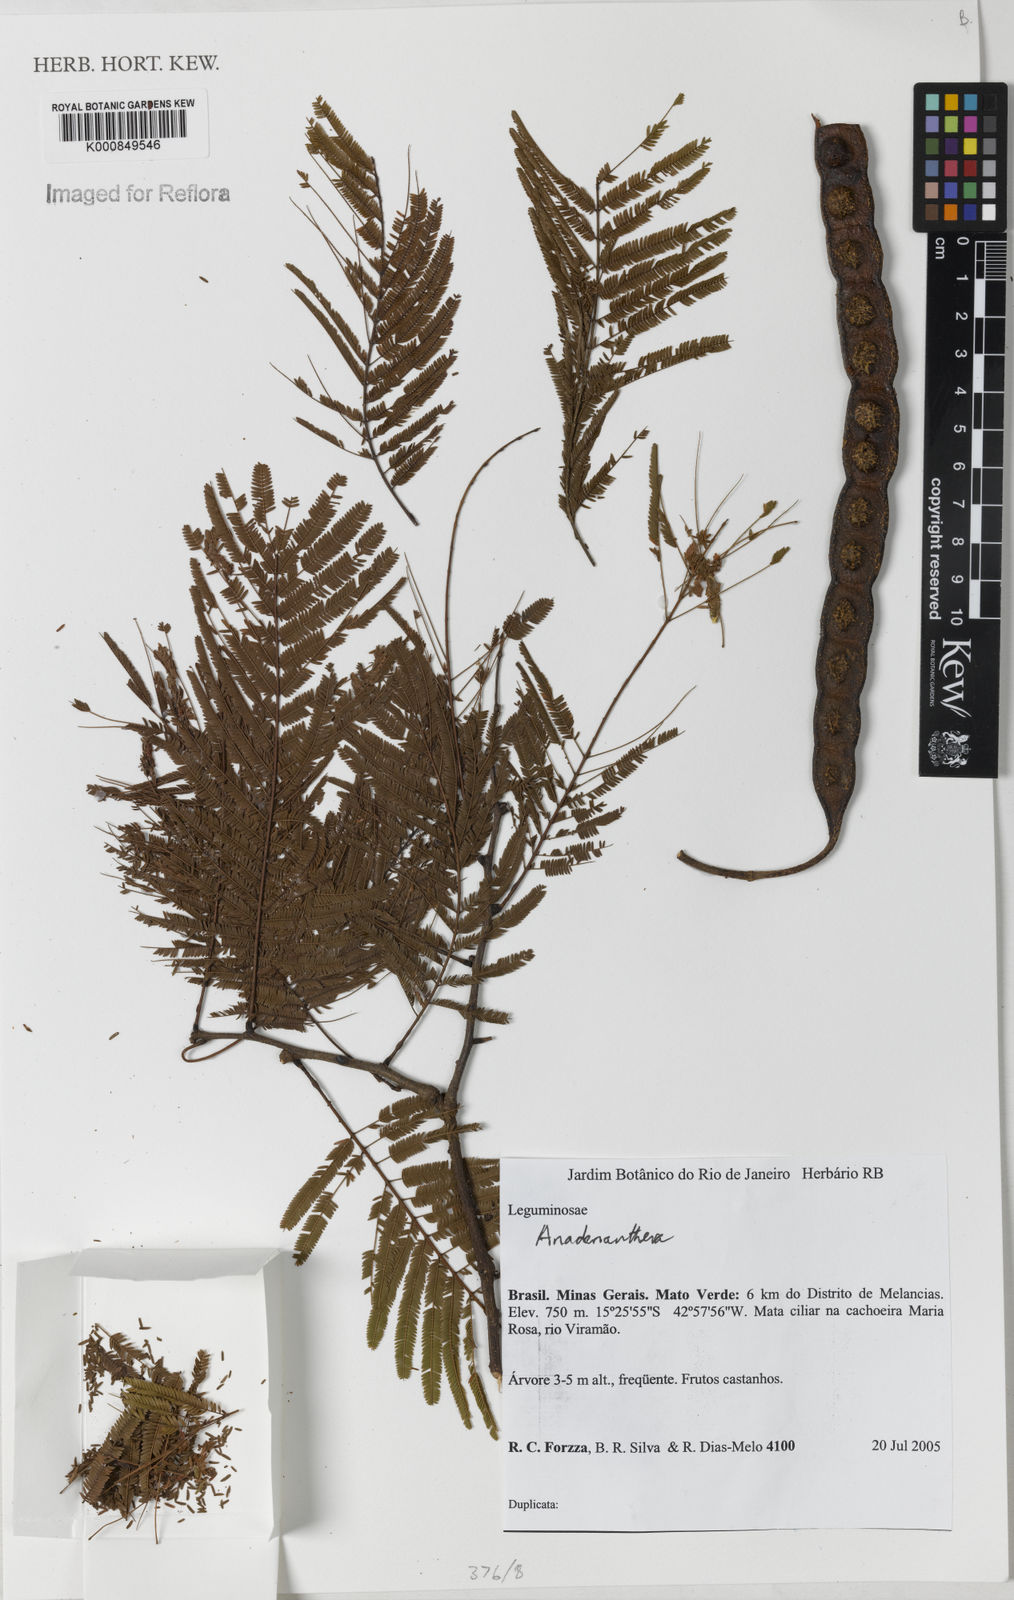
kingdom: Plantae
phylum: Tracheophyta
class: Magnoliopsida
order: Fabales
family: Fabaceae
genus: Anadenanthera
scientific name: Anadenanthera
